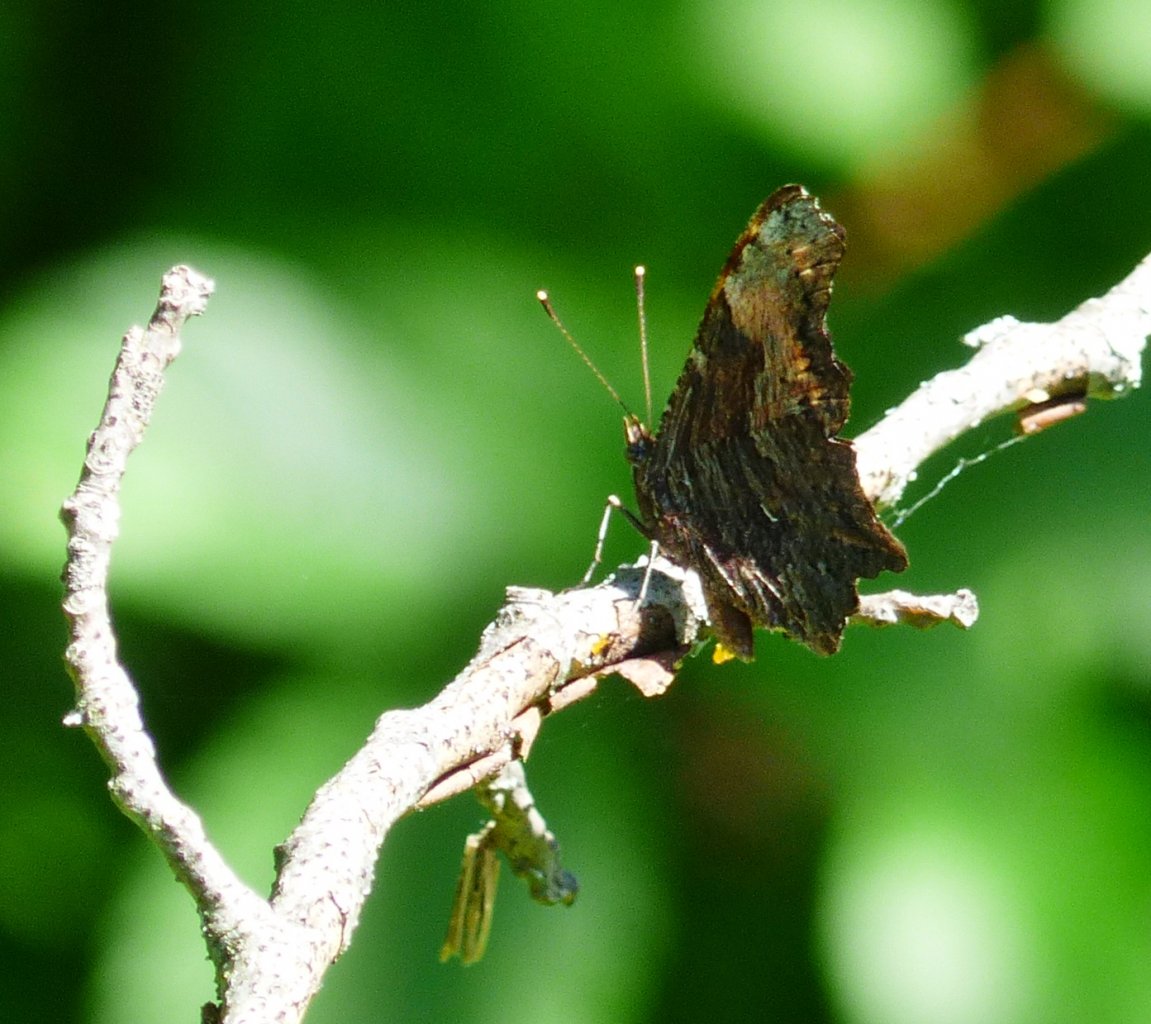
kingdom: Animalia
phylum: Arthropoda
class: Insecta
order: Lepidoptera
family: Nymphalidae
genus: Polygonia
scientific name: Polygonia progne
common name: Gray Comma
